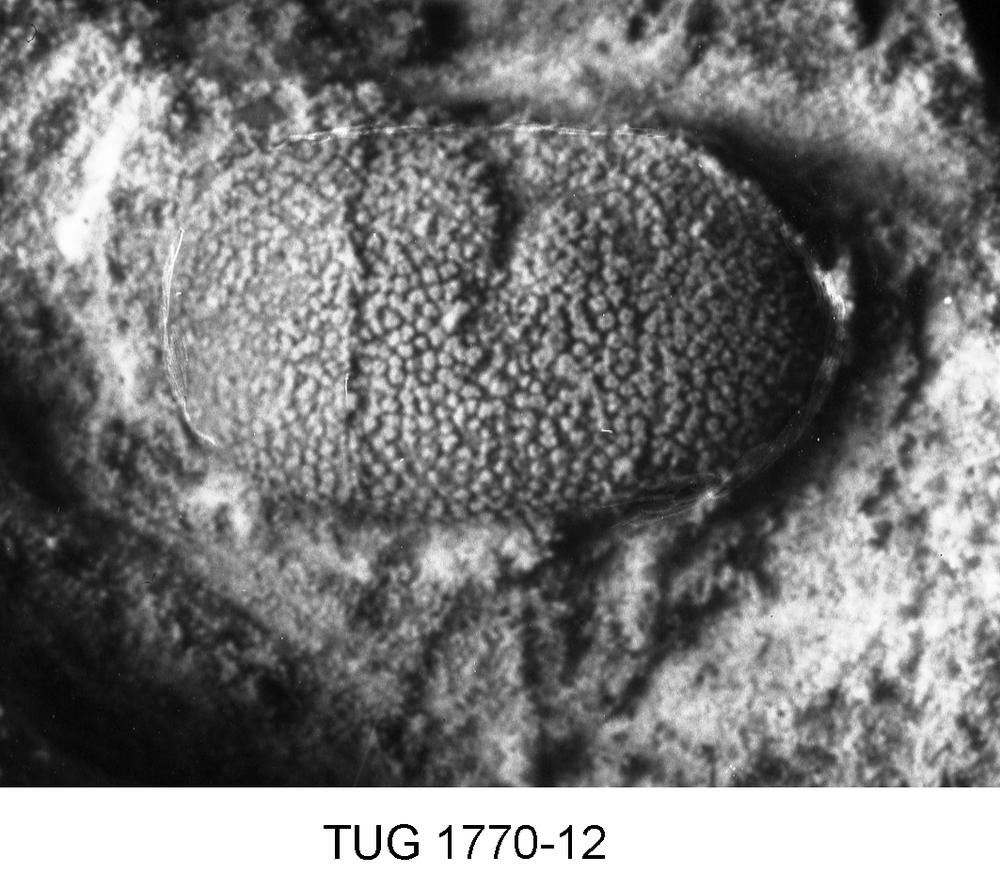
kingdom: Animalia
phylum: Arthropoda
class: Ostracoda
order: Platycopida
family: Kloedenellidae
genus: Kloedenella
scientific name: Kloedenella
